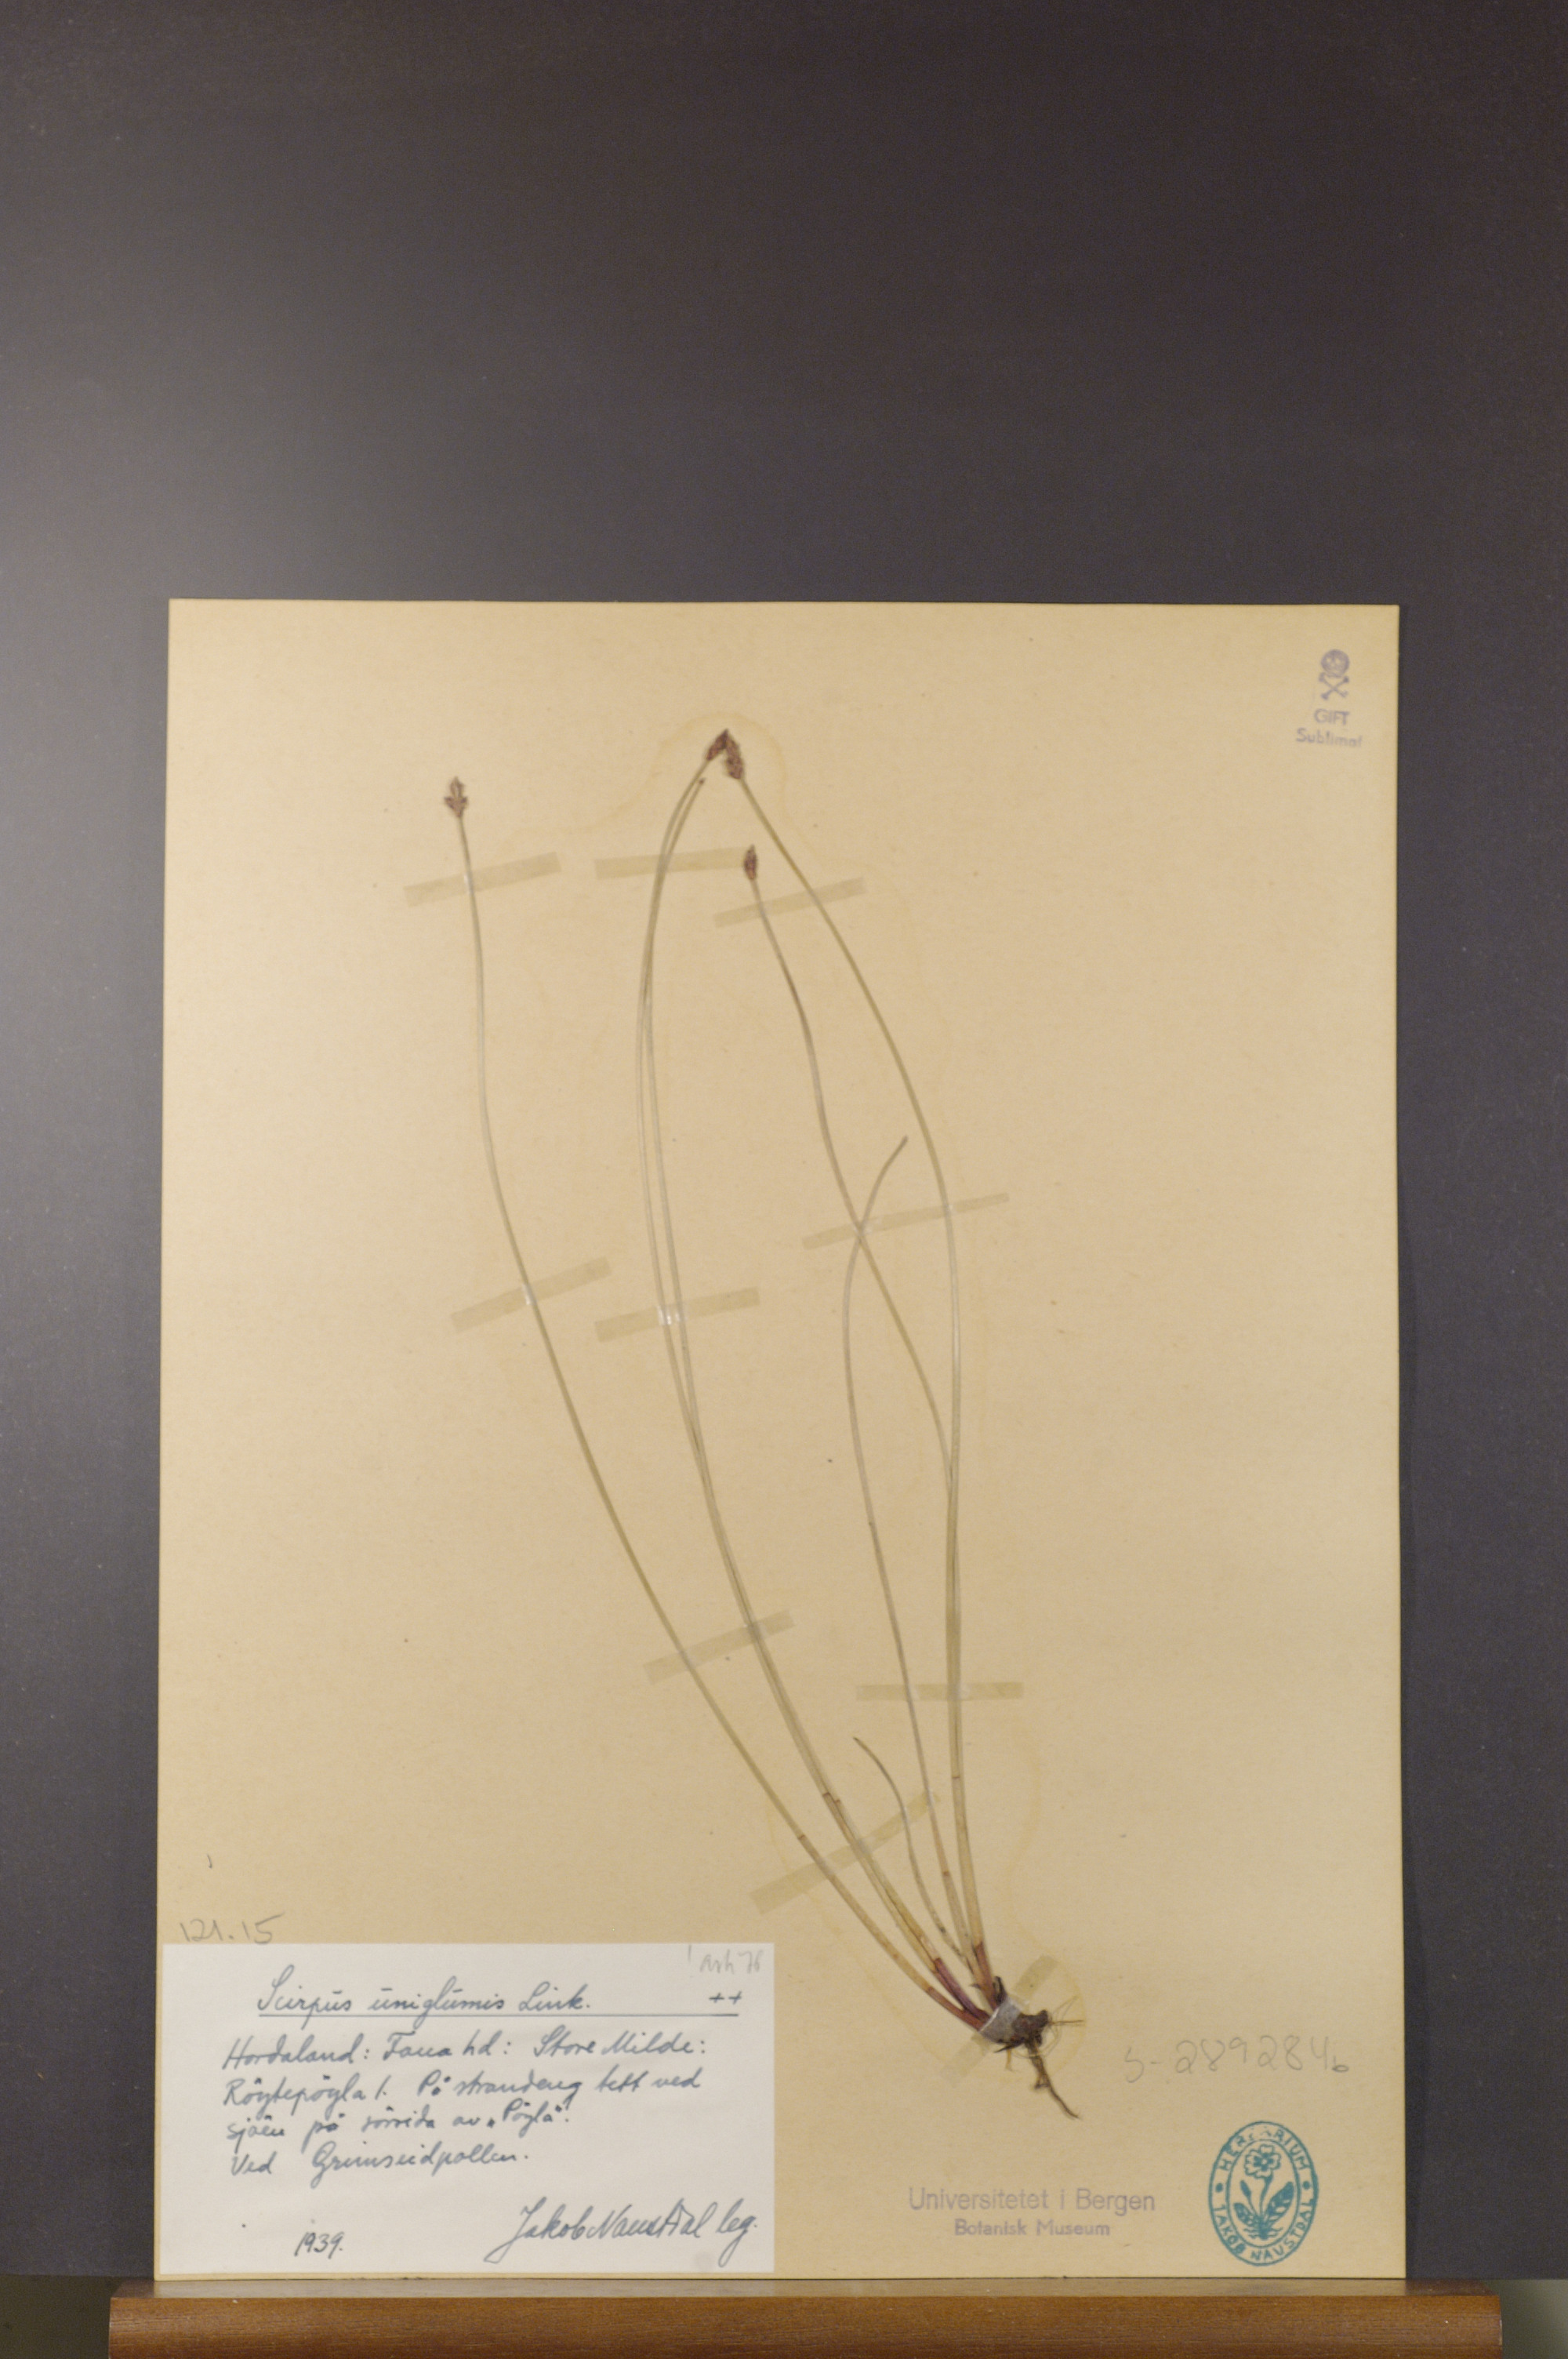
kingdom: Plantae
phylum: Tracheophyta
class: Liliopsida
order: Poales
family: Cyperaceae
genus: Eleocharis
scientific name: Eleocharis uniglumis
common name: Slender spike-rush
